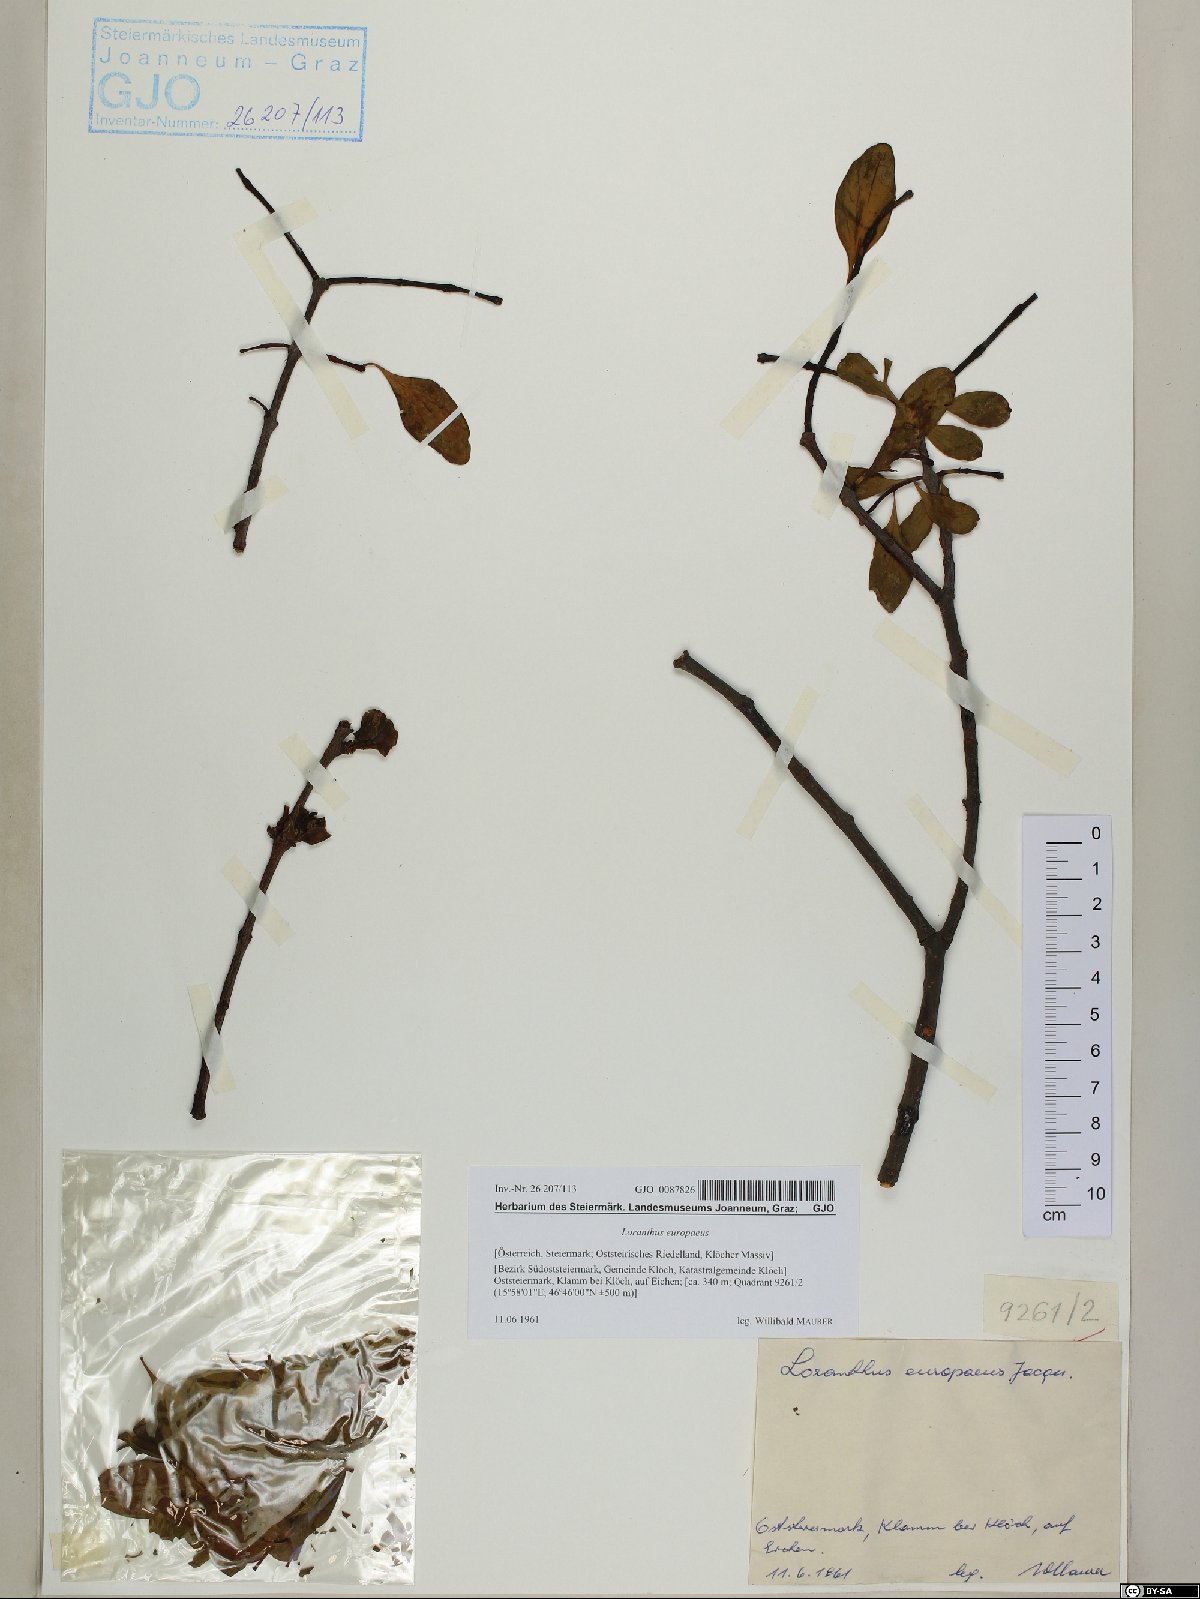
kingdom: Plantae
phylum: Tracheophyta
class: Magnoliopsida
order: Santalales
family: Loranthaceae
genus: Loranthus
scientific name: Loranthus europaeus
